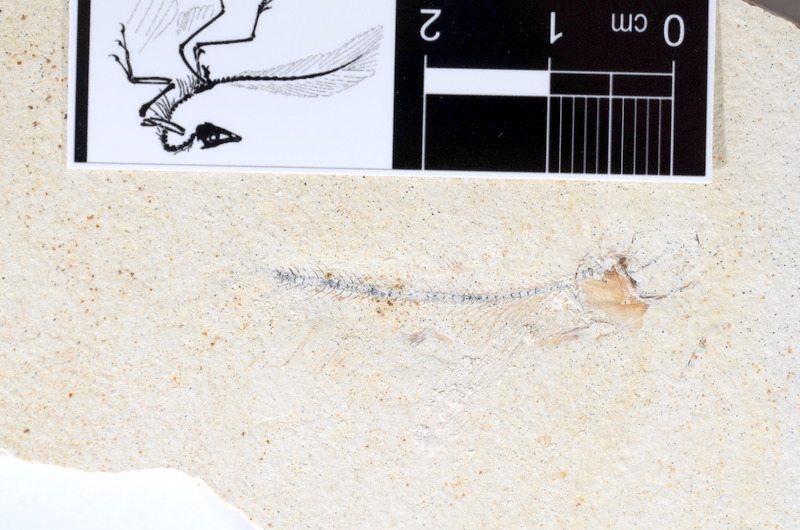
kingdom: Animalia
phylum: Chordata
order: Salmoniformes
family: Orthogonikleithridae
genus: Orthogonikleithrus
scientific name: Orthogonikleithrus hoelli
